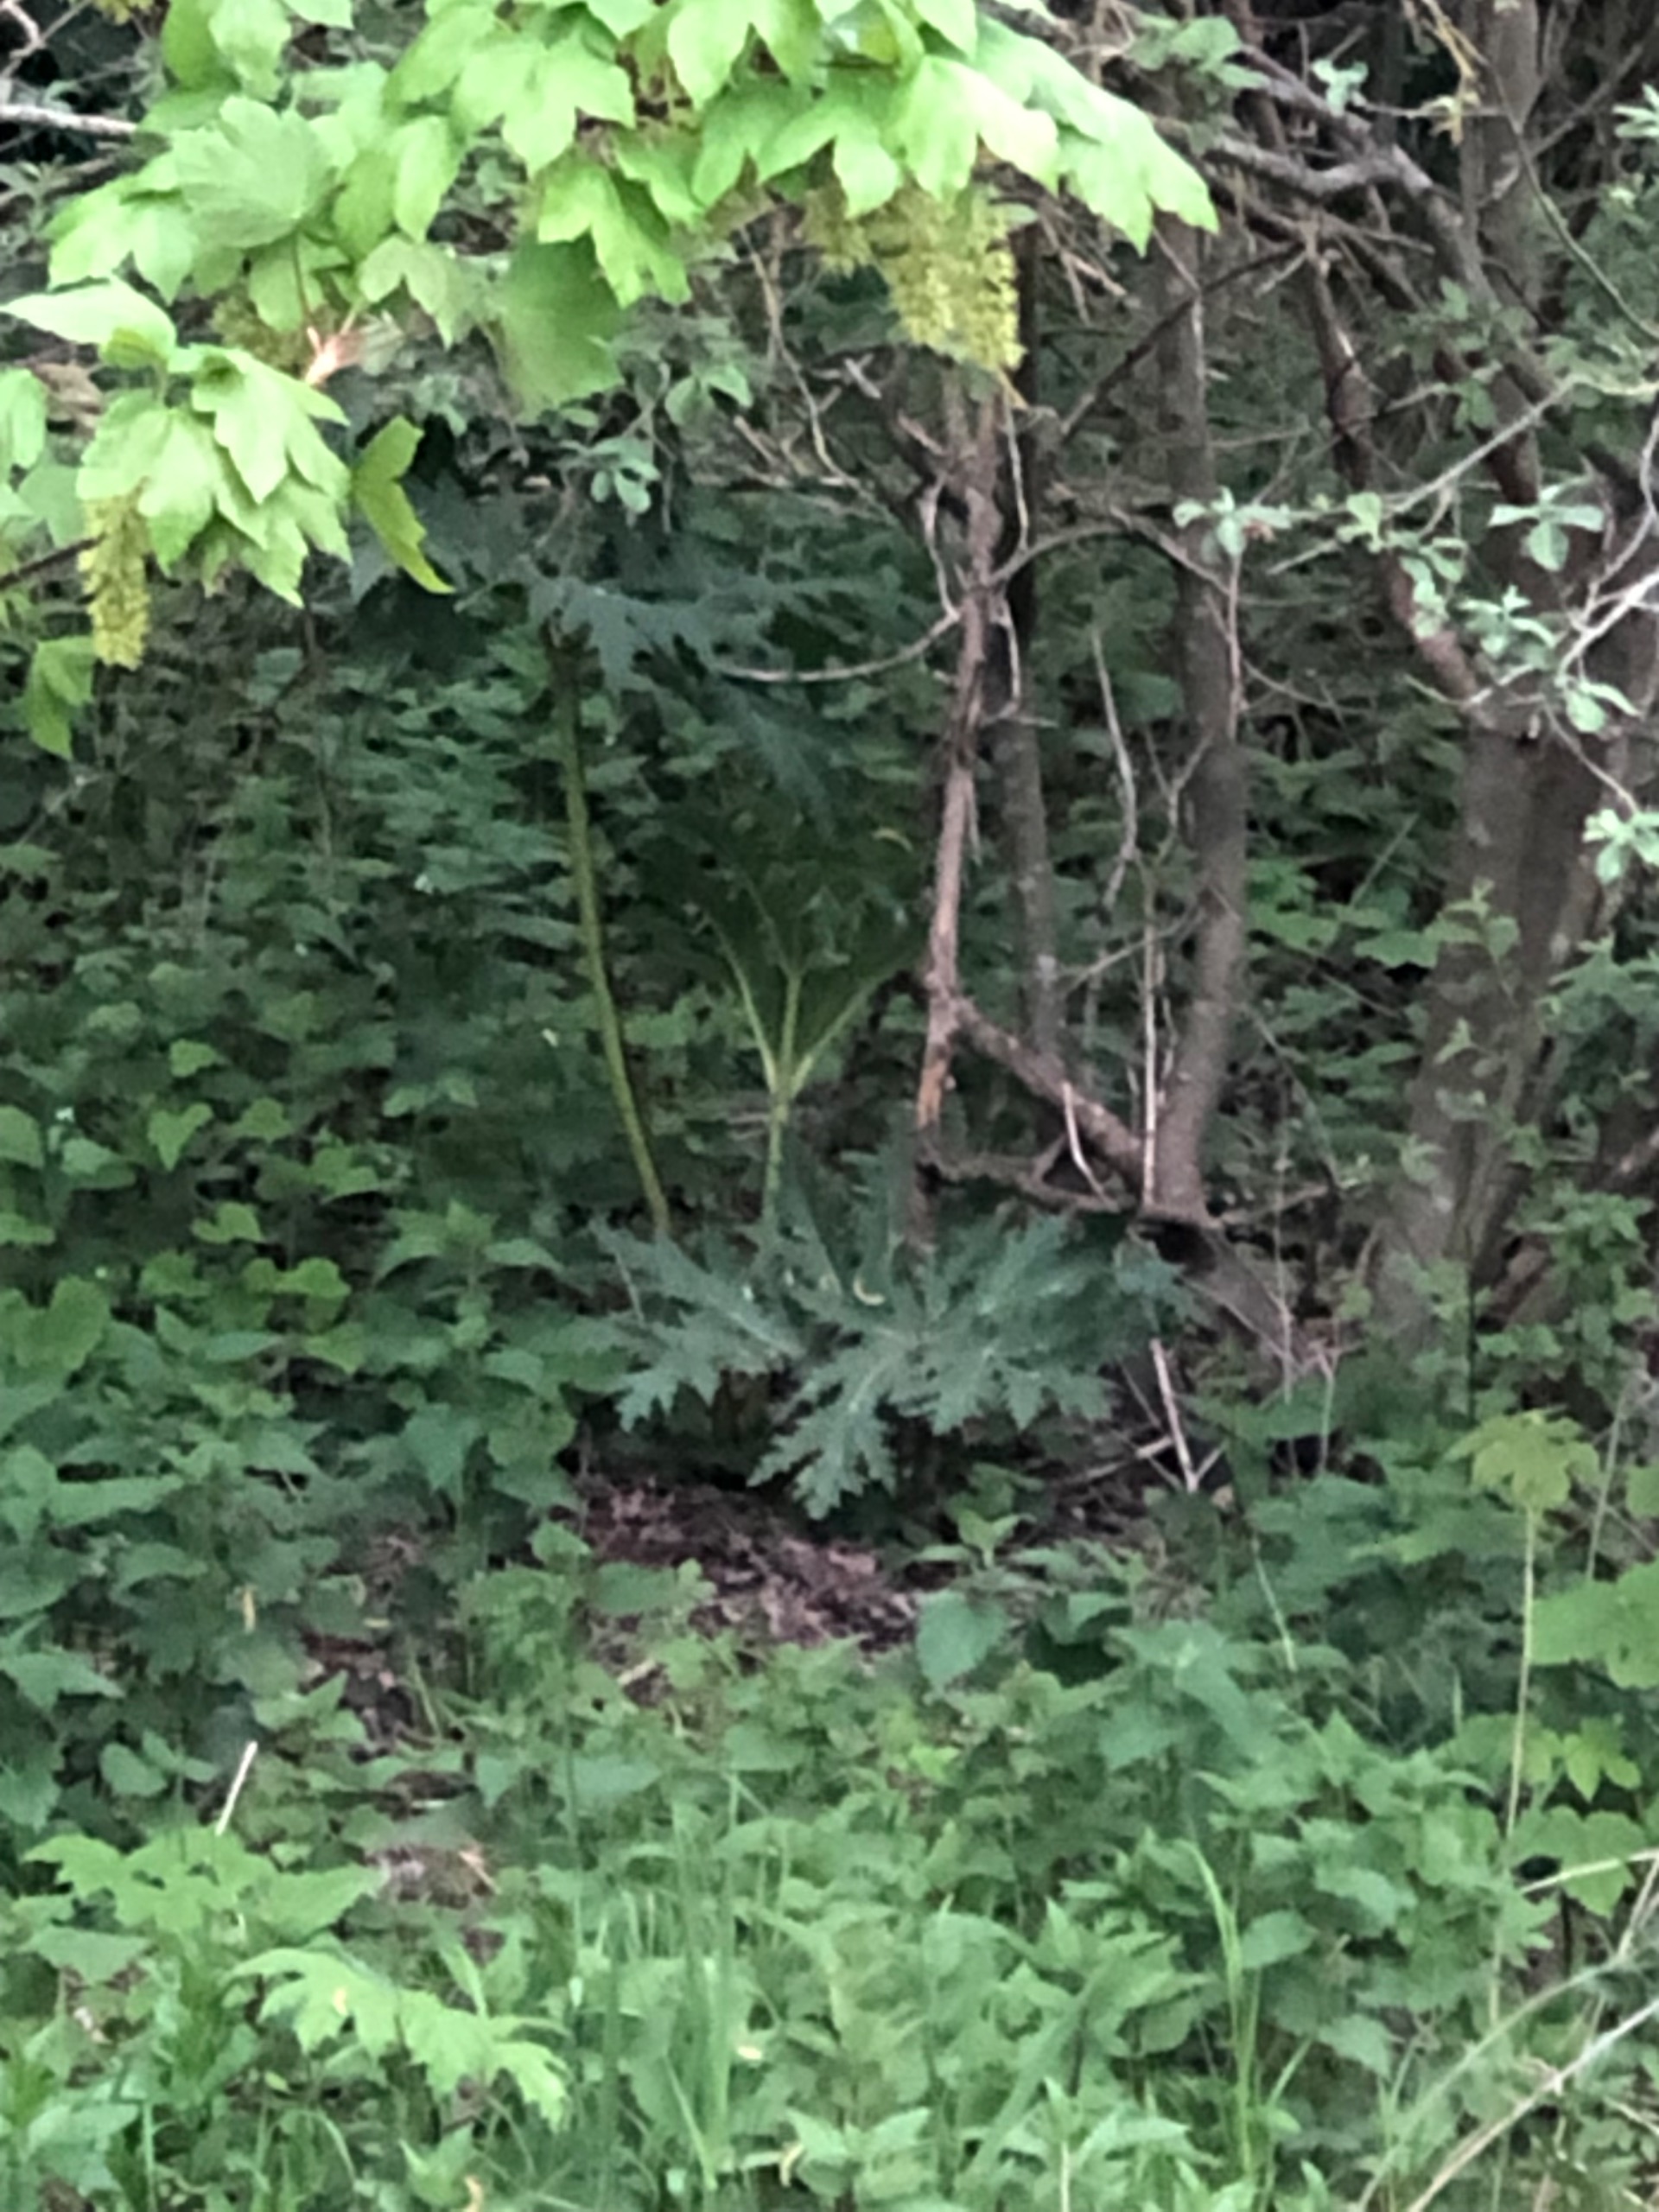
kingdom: Plantae
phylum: Tracheophyta
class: Magnoliopsida
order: Apiales
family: Apiaceae
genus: Heracleum
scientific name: Heracleum mantegazzianum
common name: Kæmpe-bjørneklo
